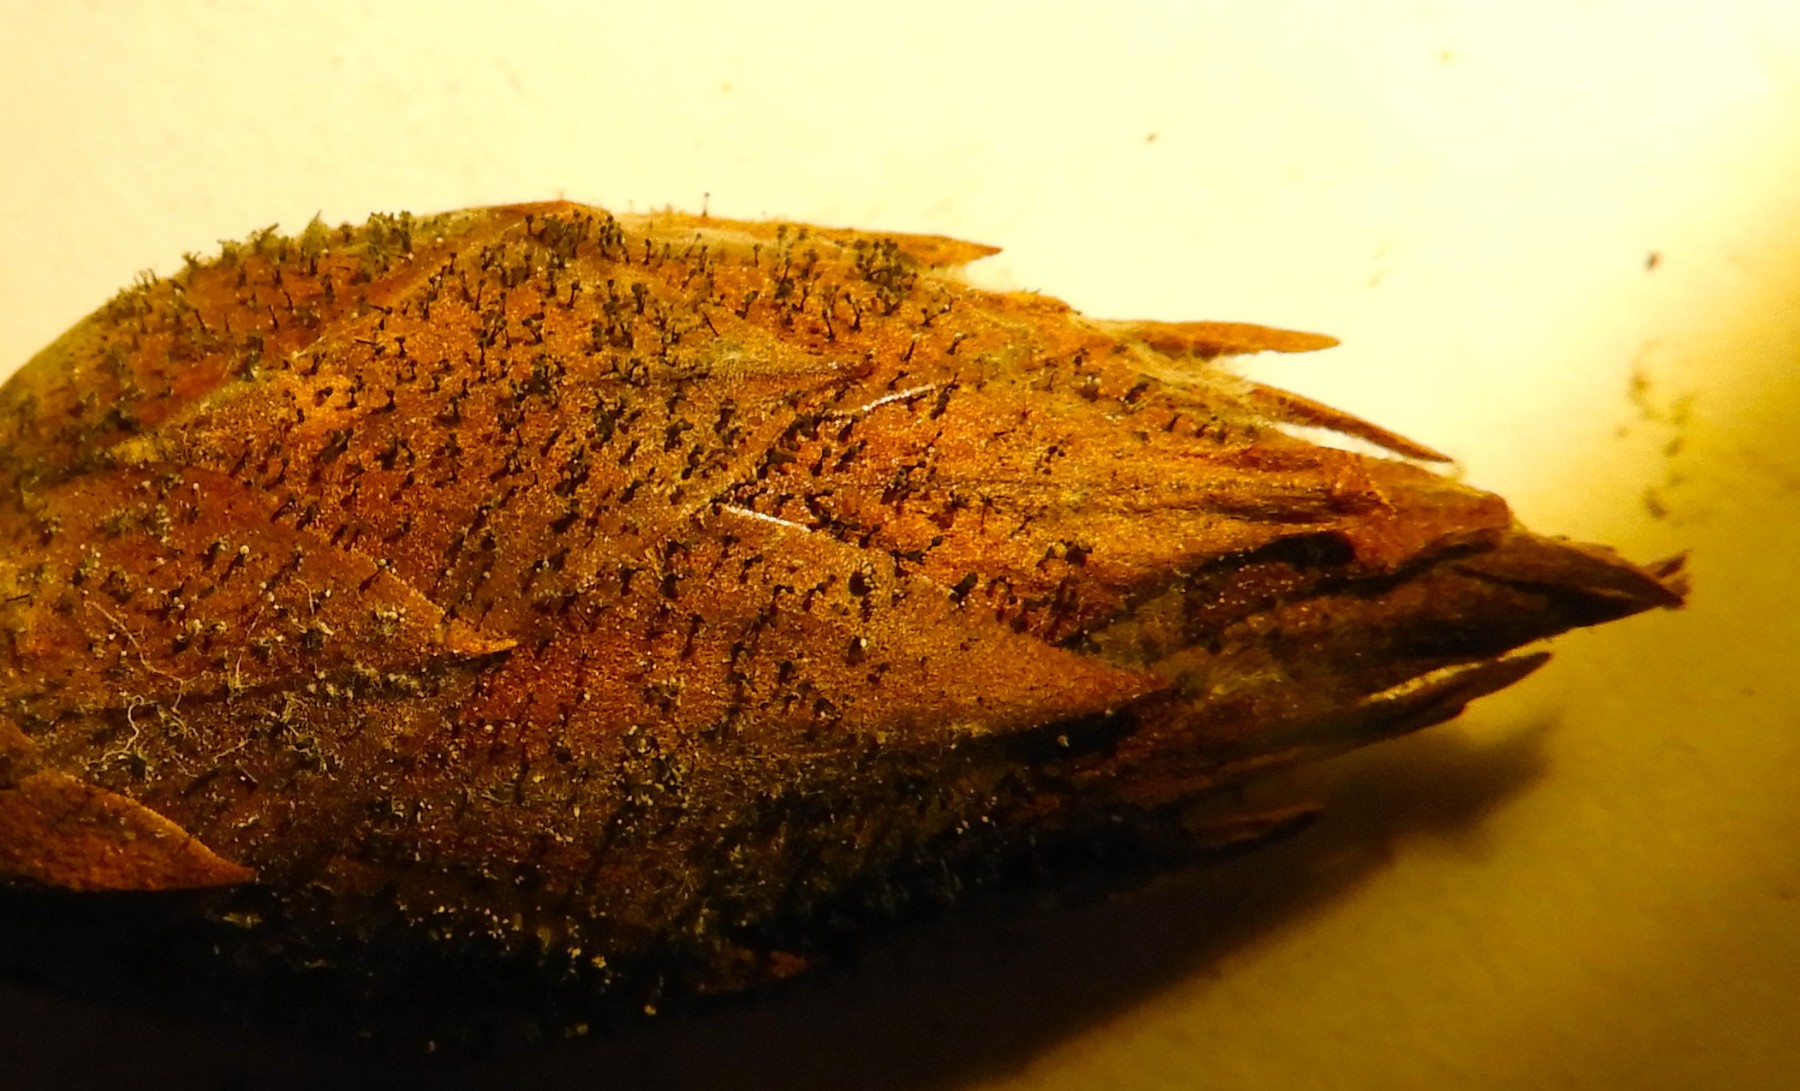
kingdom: Fungi
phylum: Ascomycota
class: Dothideomycetes
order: Pleosporales
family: Melanommataceae
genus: Seifertia
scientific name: Seifertia azaleae
